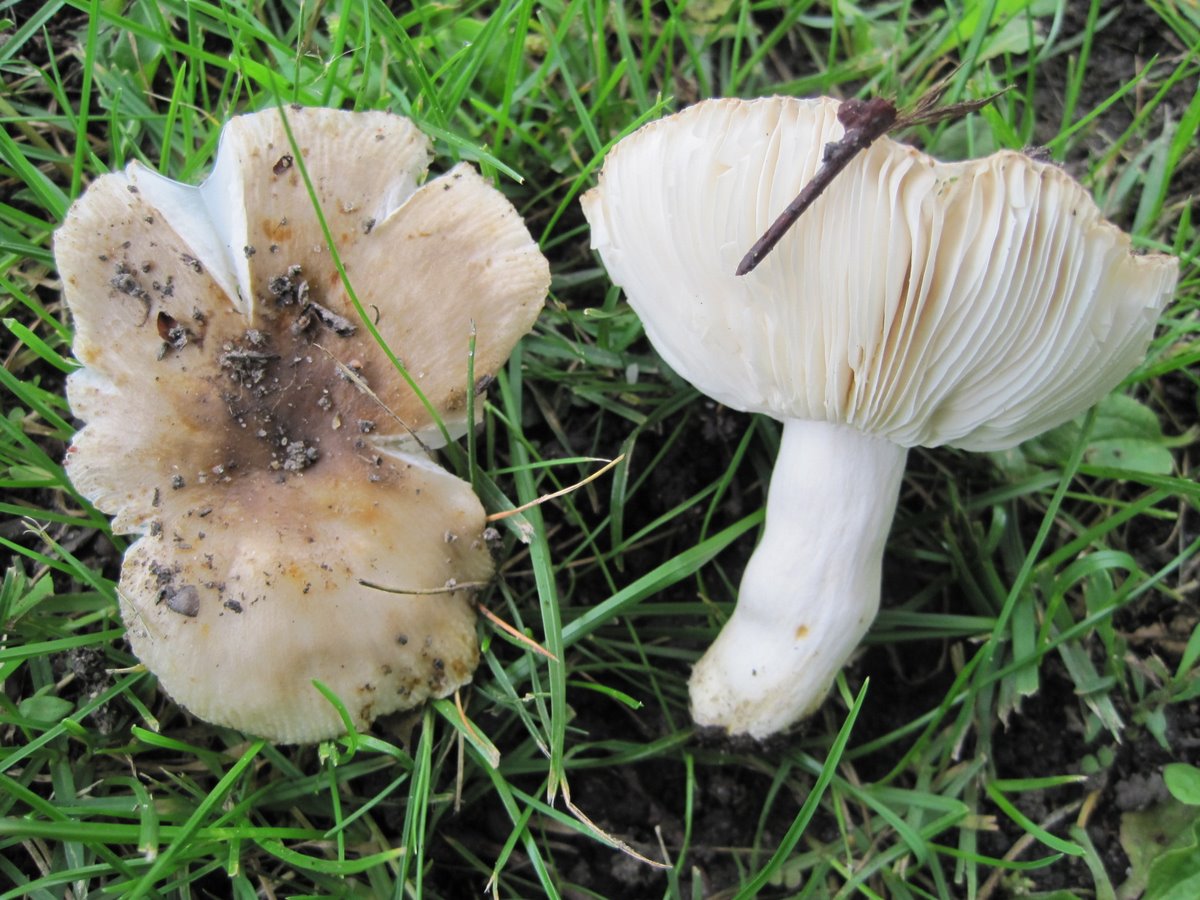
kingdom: Fungi
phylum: Basidiomycota
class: Agaricomycetes
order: Russulales
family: Russulaceae
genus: Russula
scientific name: Russula recondita
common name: mild kam-skørhat
